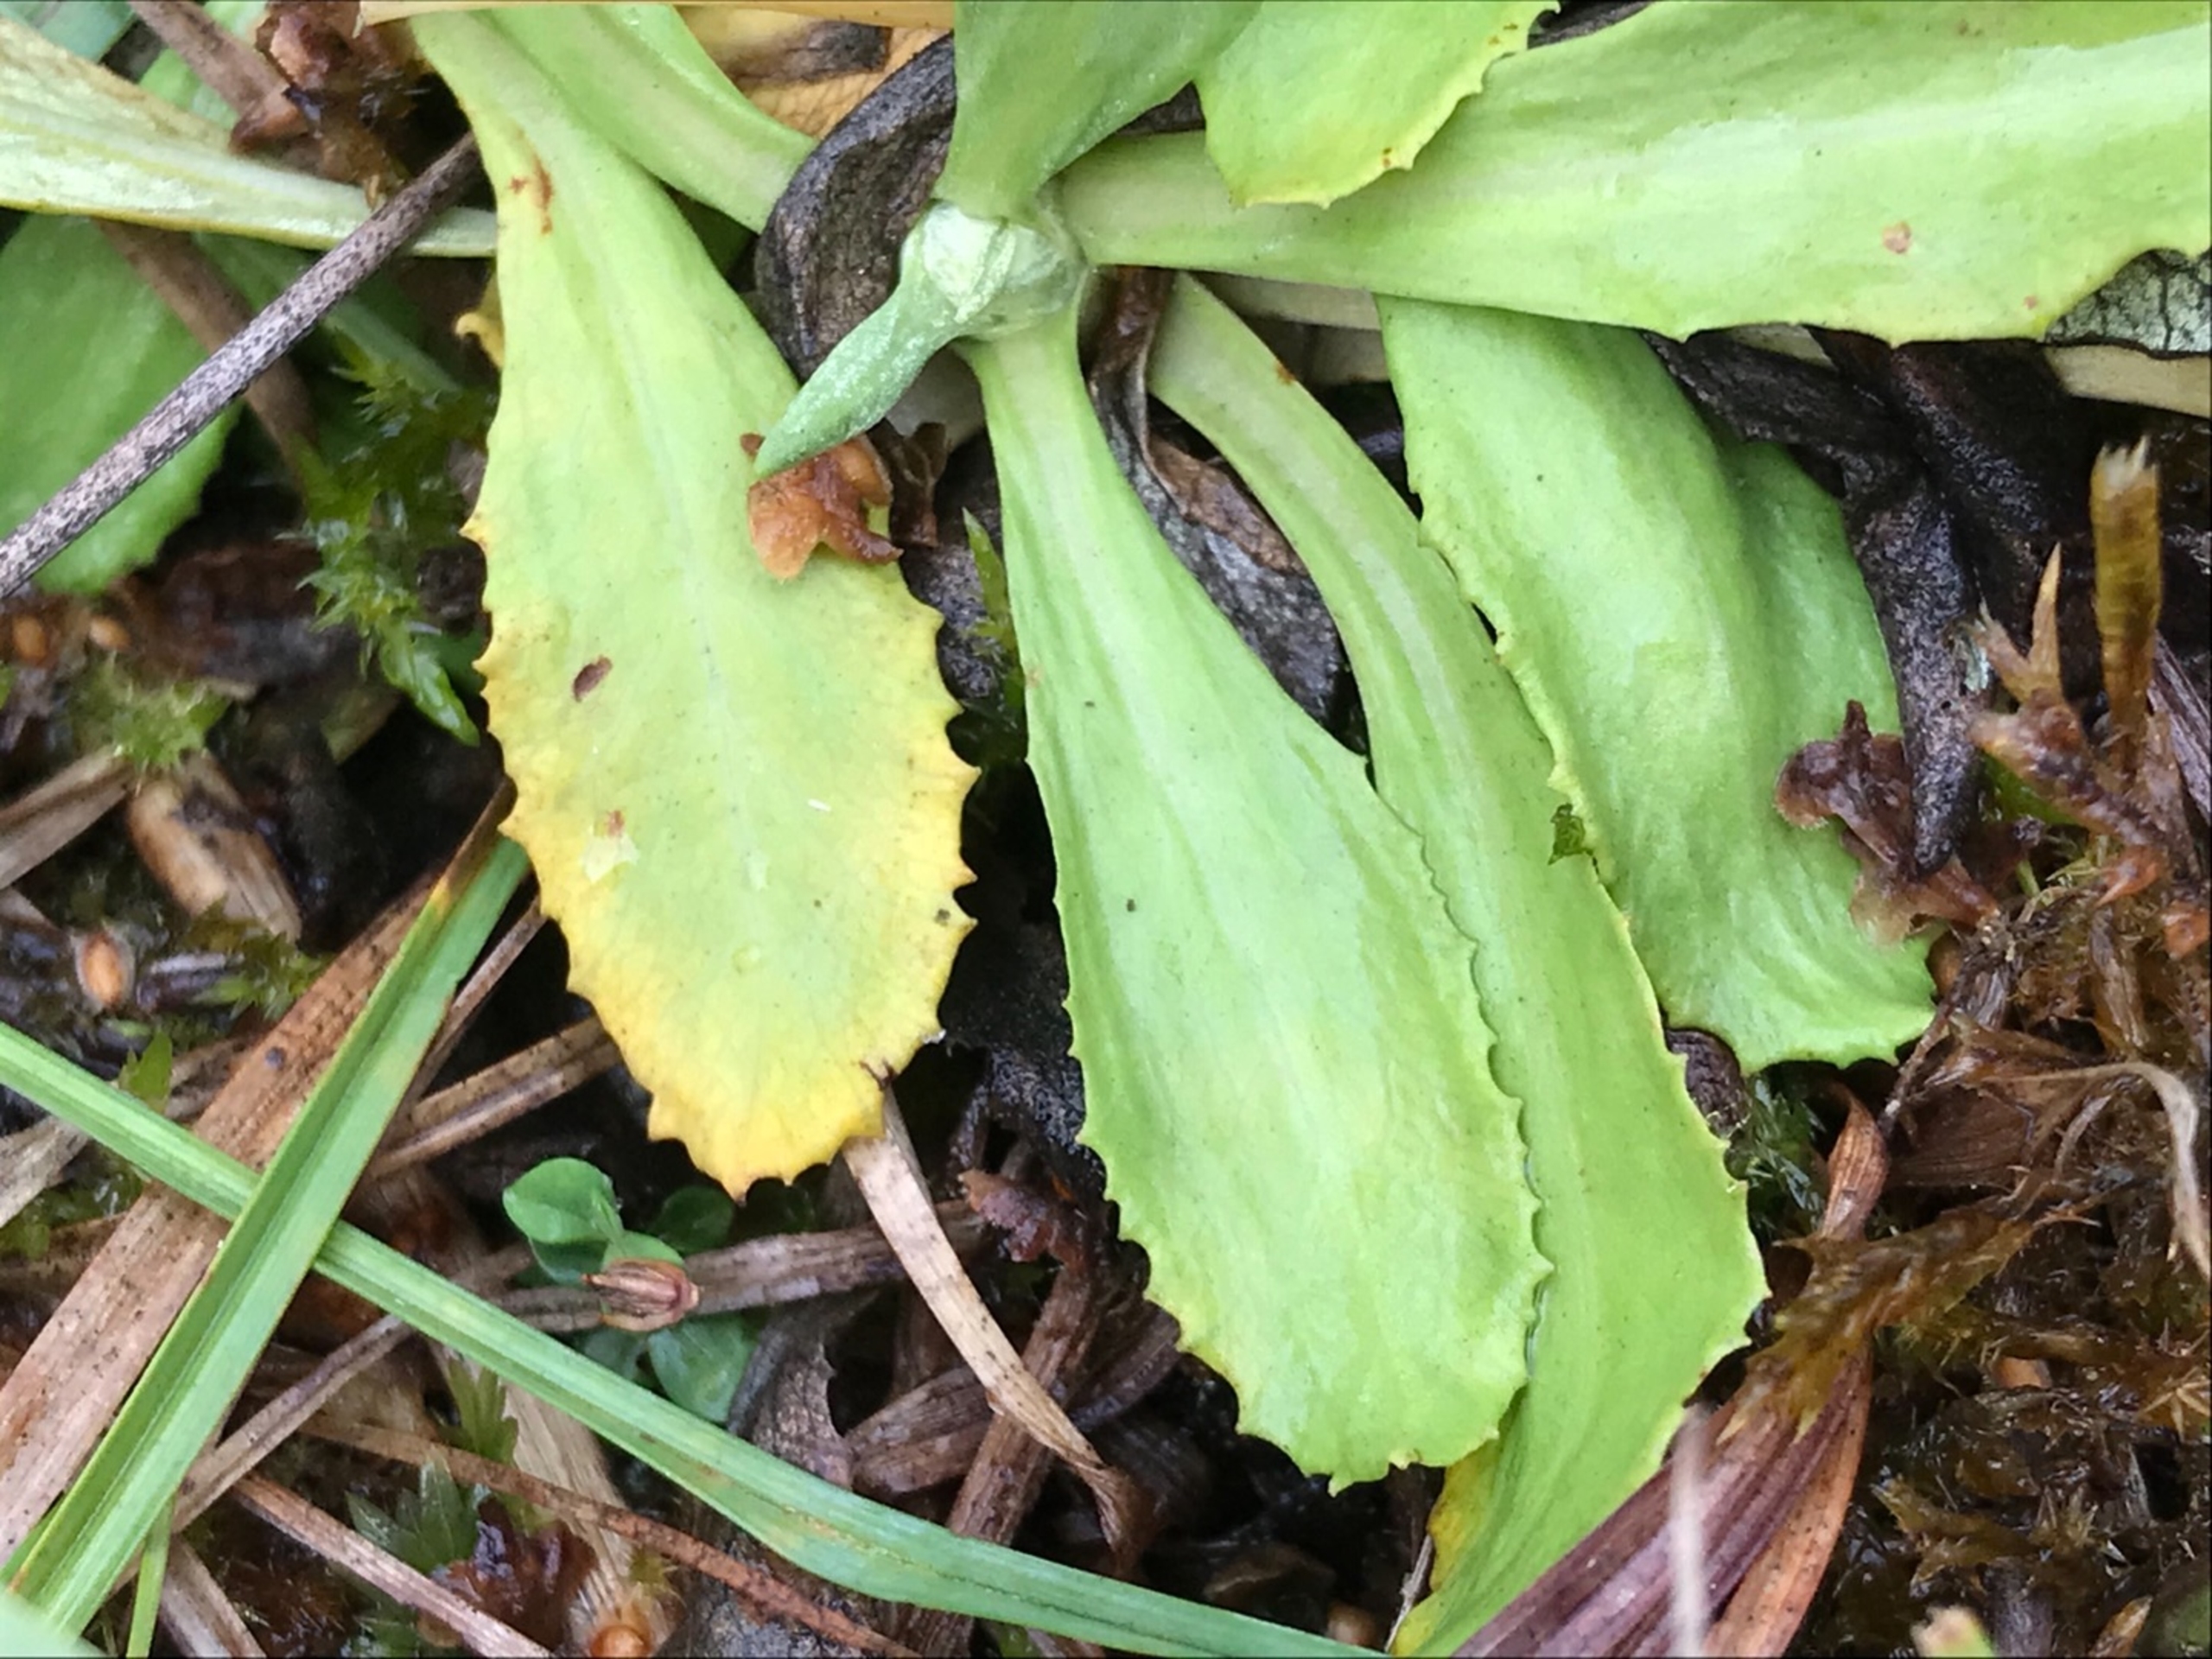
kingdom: Plantae
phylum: Tracheophyta
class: Magnoliopsida
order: Ericales
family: Primulaceae
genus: Primula
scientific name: Primula farinosa
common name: Melet kodriver
